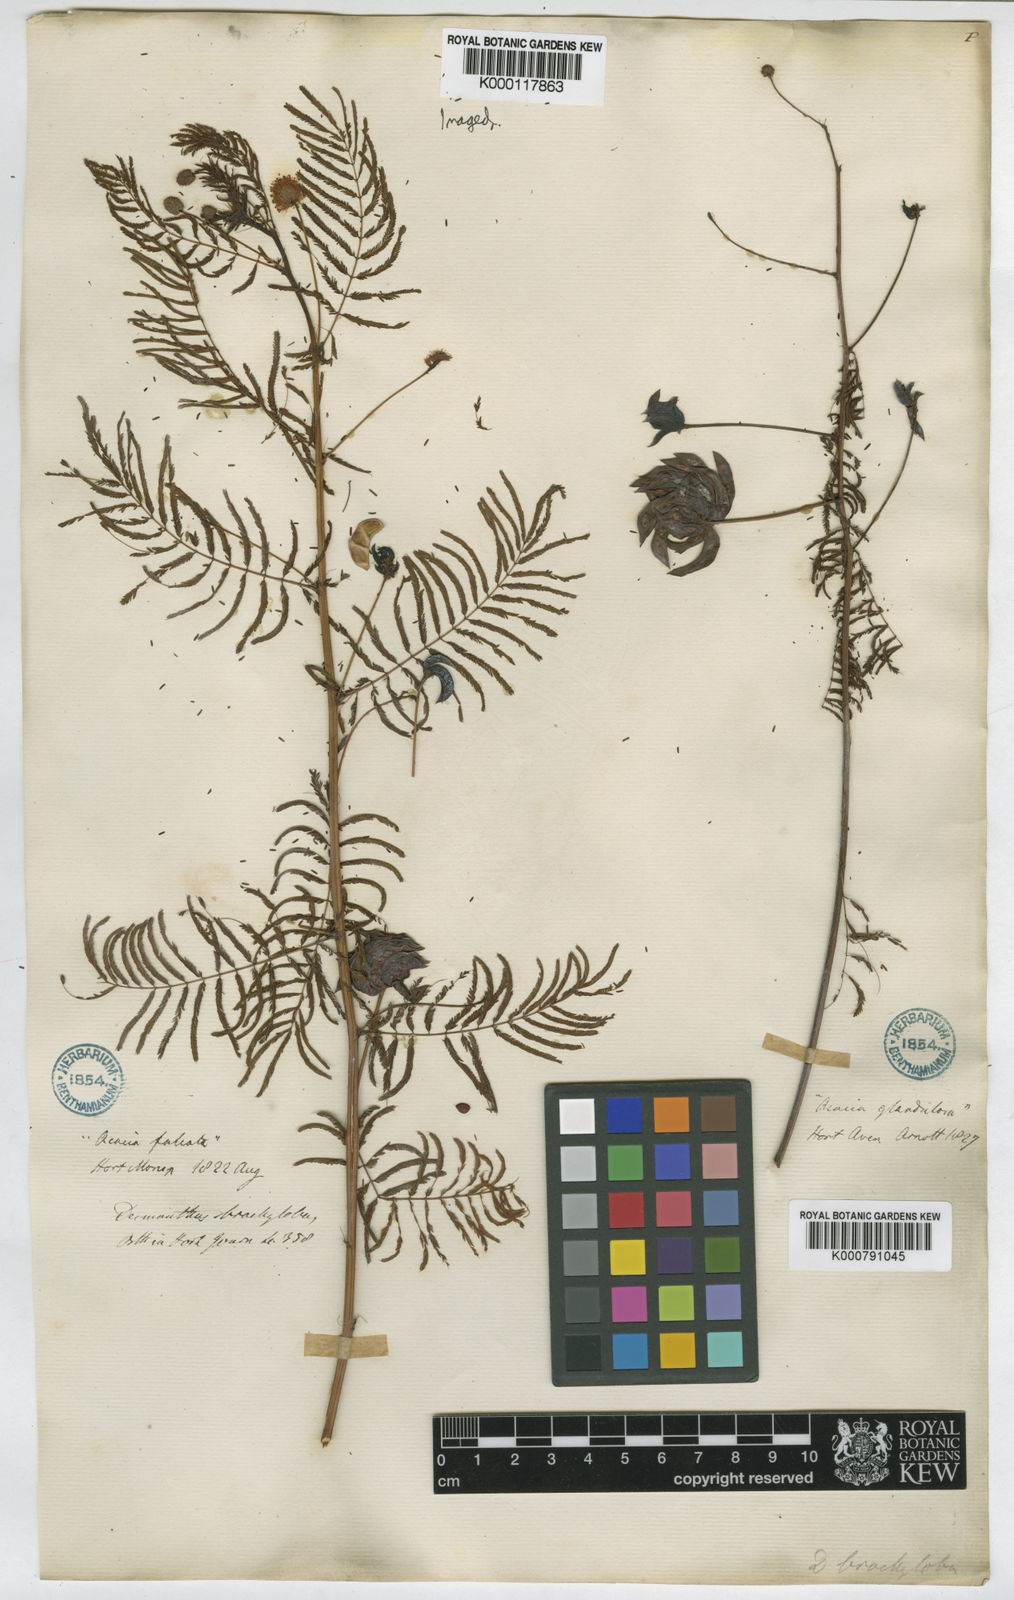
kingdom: Plantae
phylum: Tracheophyta
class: Magnoliopsida
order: Fabales
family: Fabaceae
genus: Desmanthus
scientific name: Desmanthus illinoensis
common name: Illinois bundle-flower
